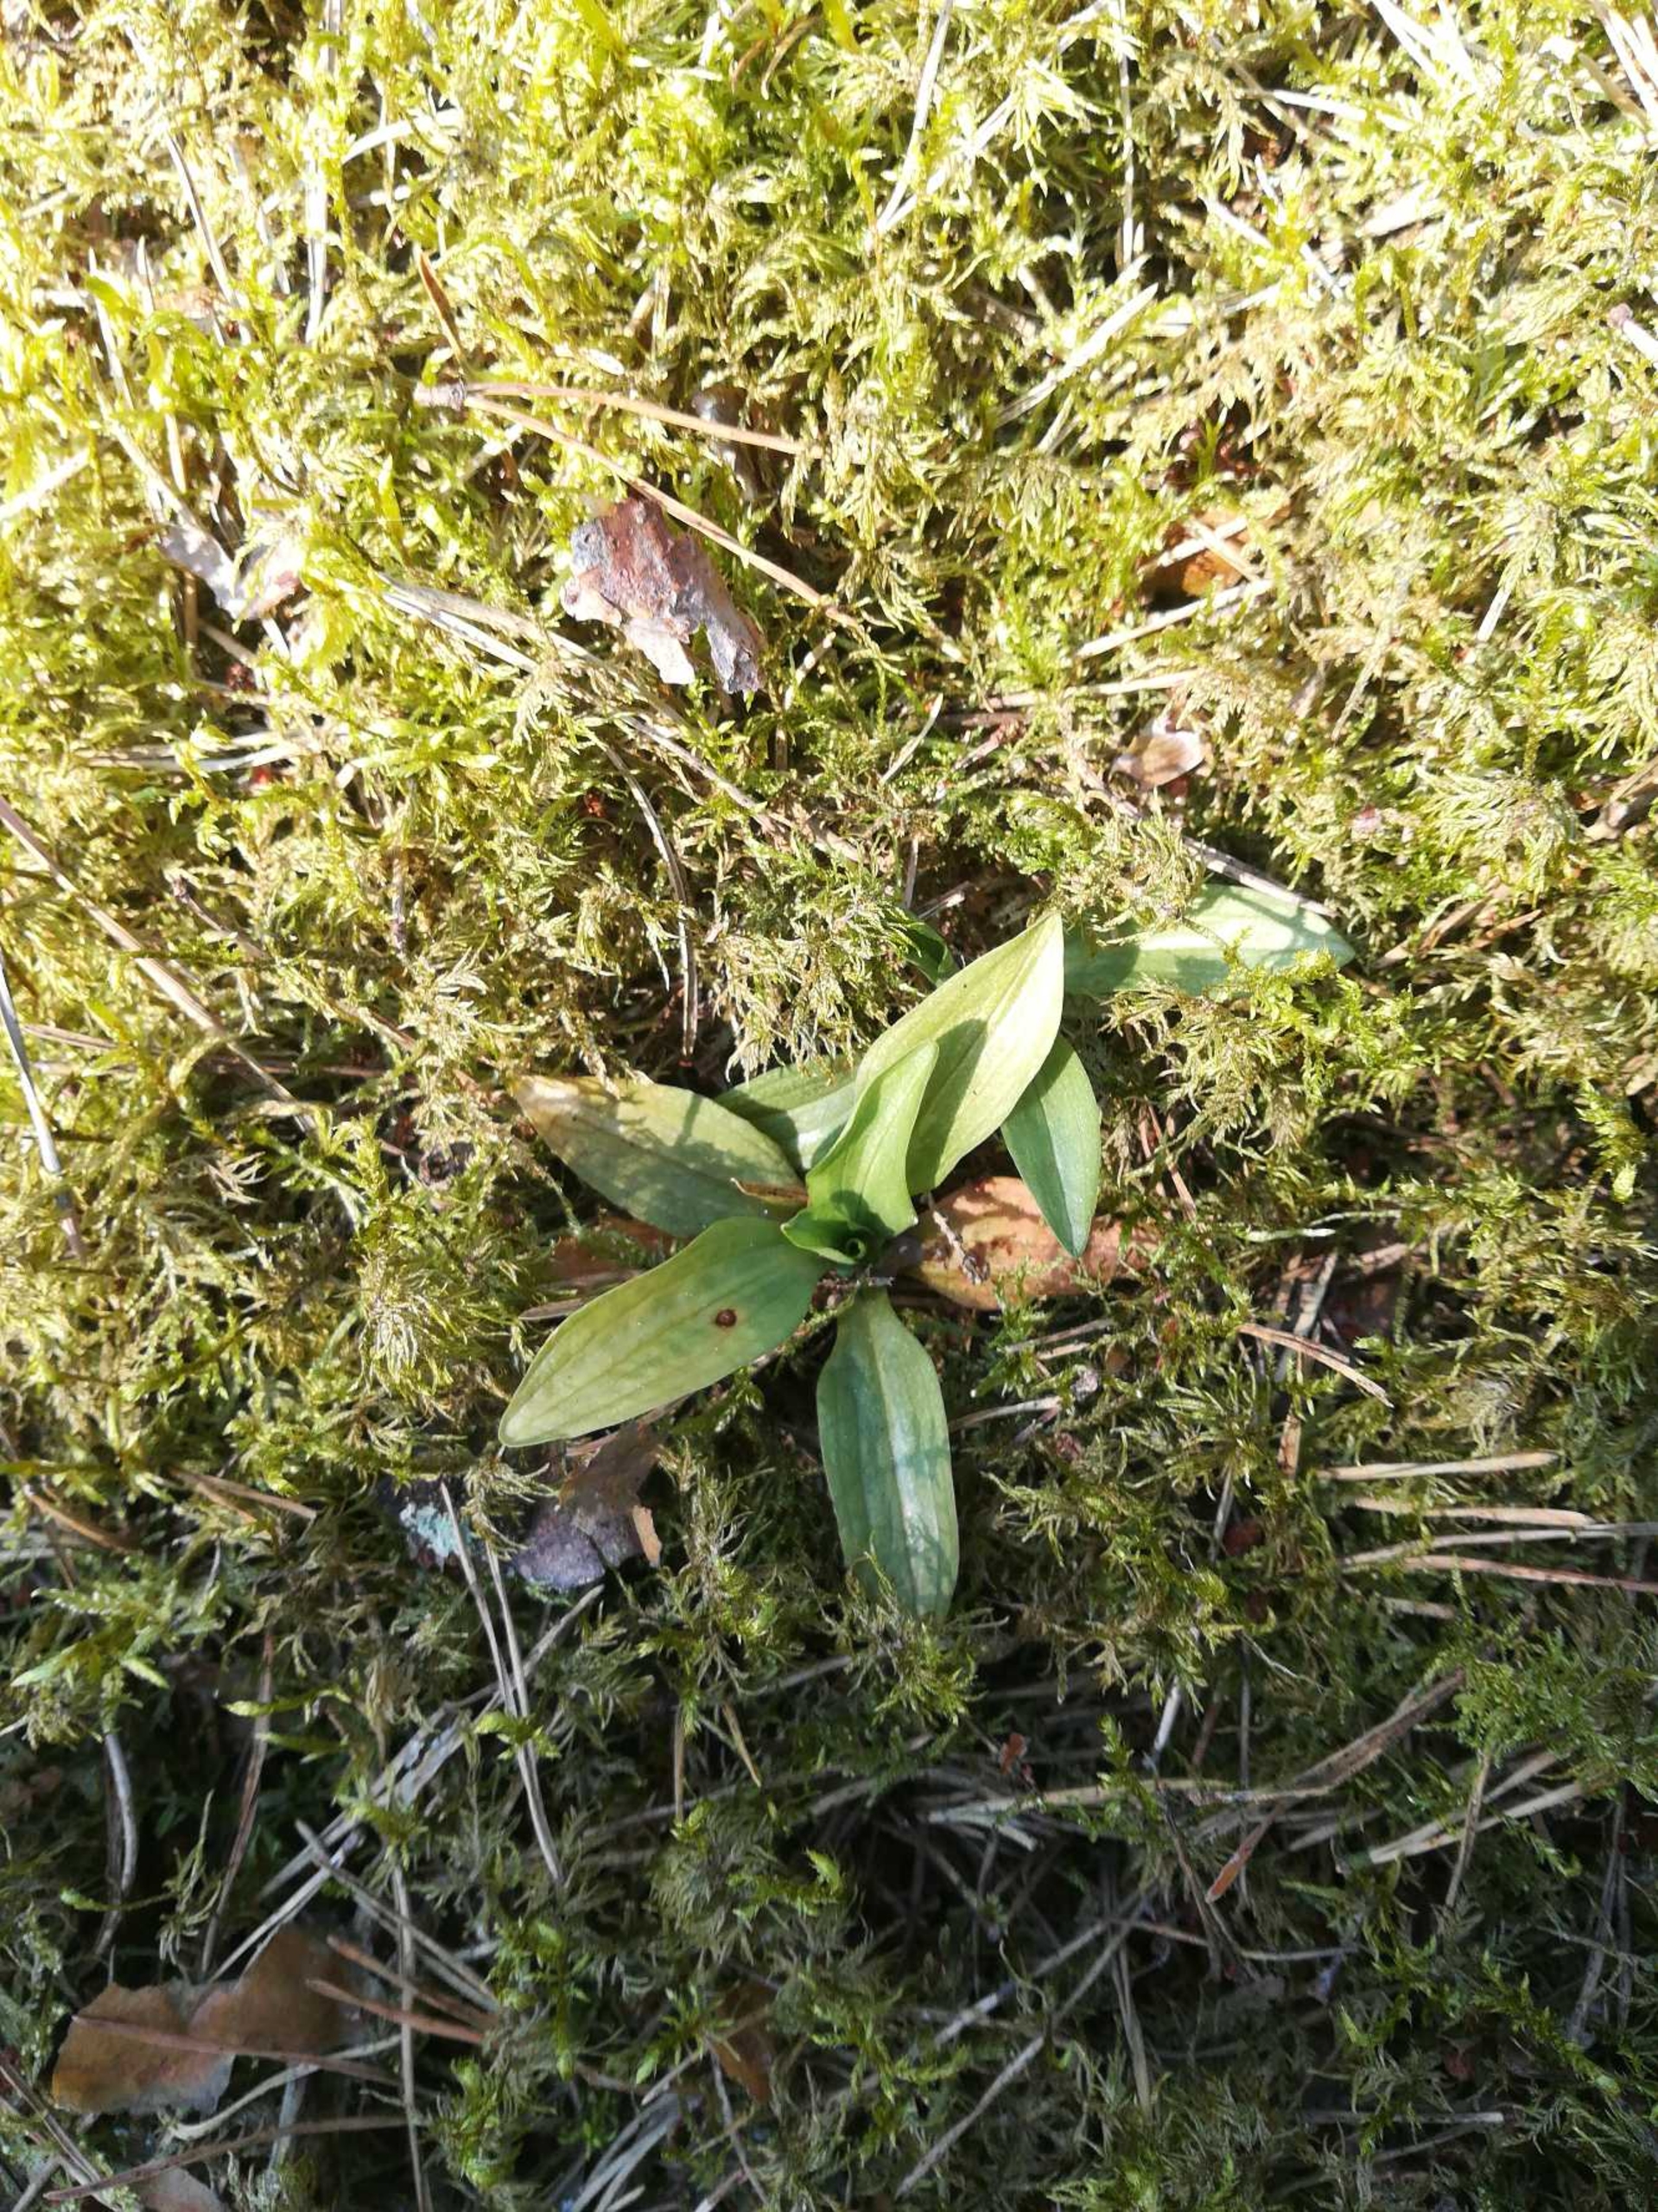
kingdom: Plantae
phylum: Tracheophyta
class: Liliopsida
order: Asparagales
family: Orchidaceae
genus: Goodyera
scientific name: Goodyera repens
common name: Knærod
